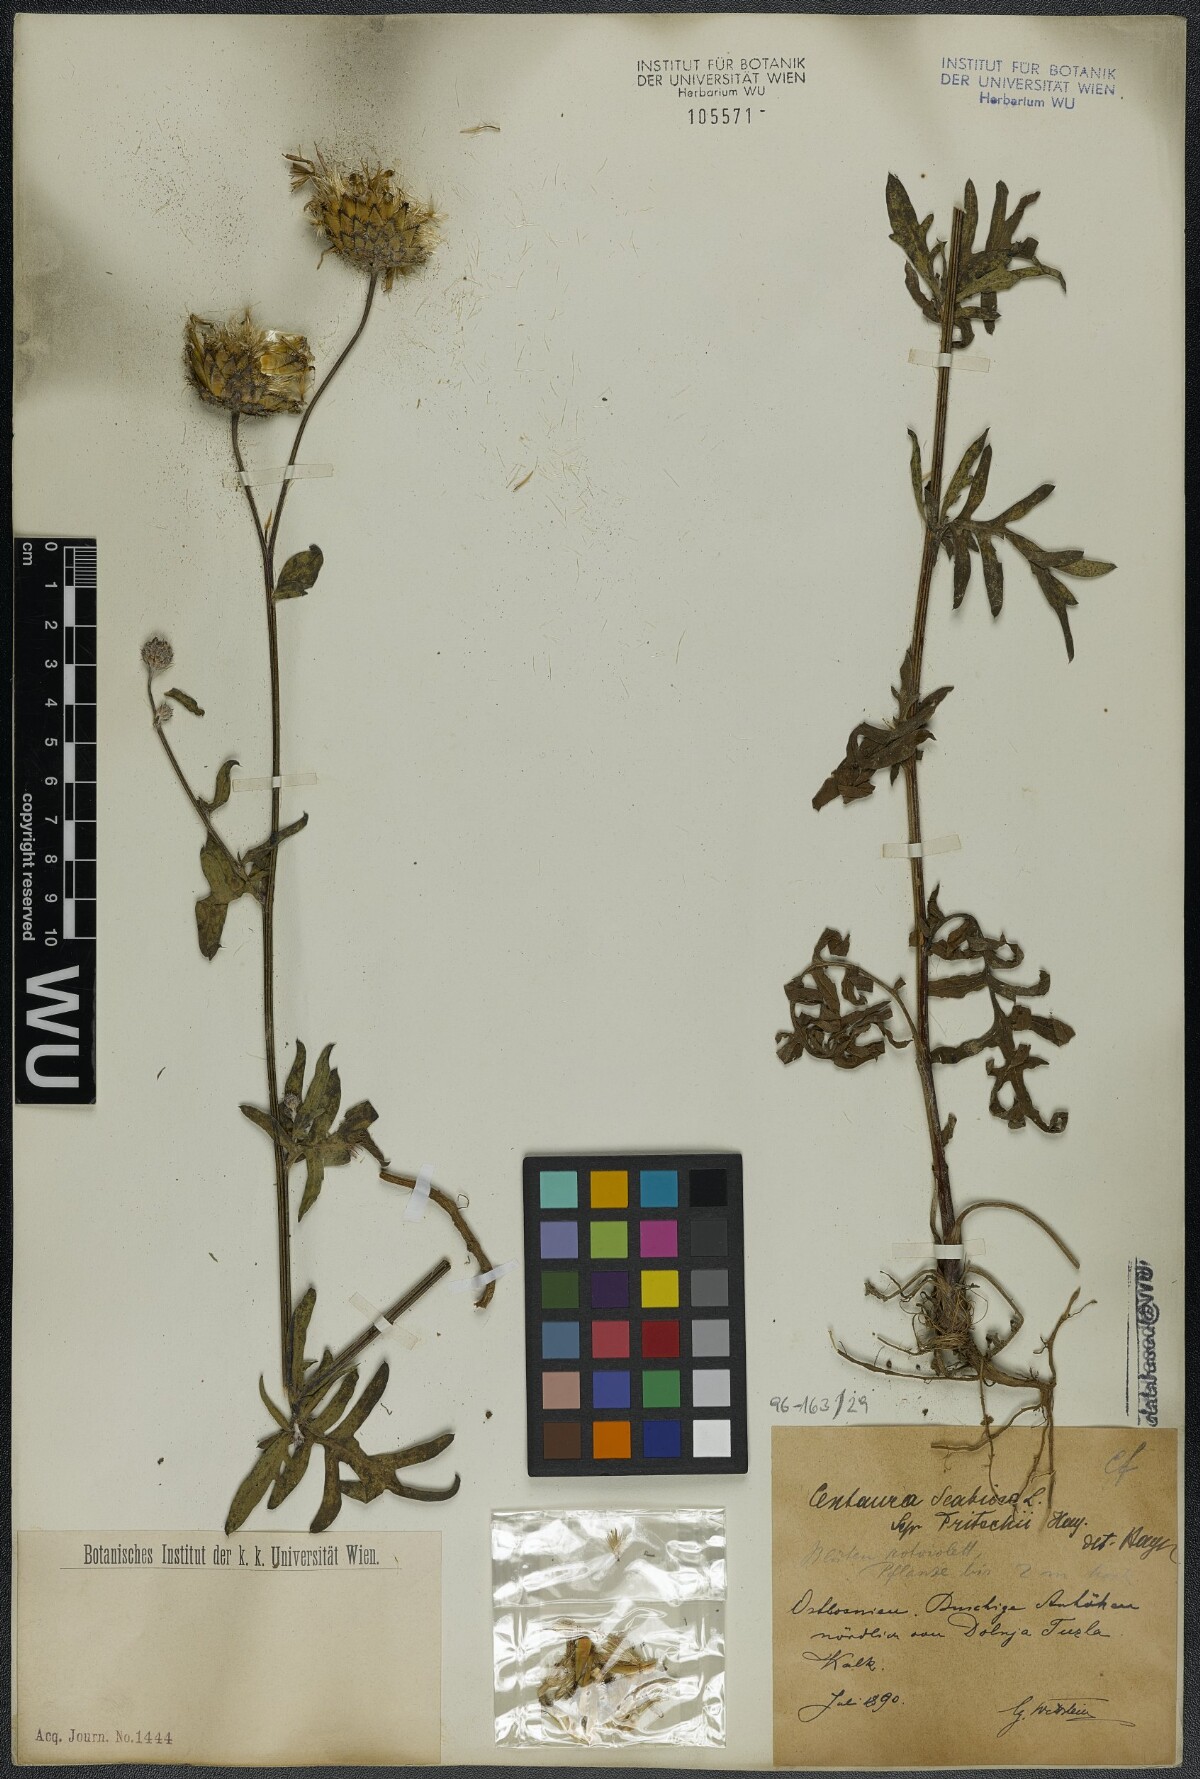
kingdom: Plantae
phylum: Tracheophyta
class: Magnoliopsida
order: Asterales
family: Asteraceae
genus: Centaurea
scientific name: Centaurea scabiosa
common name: Greater knapweed
